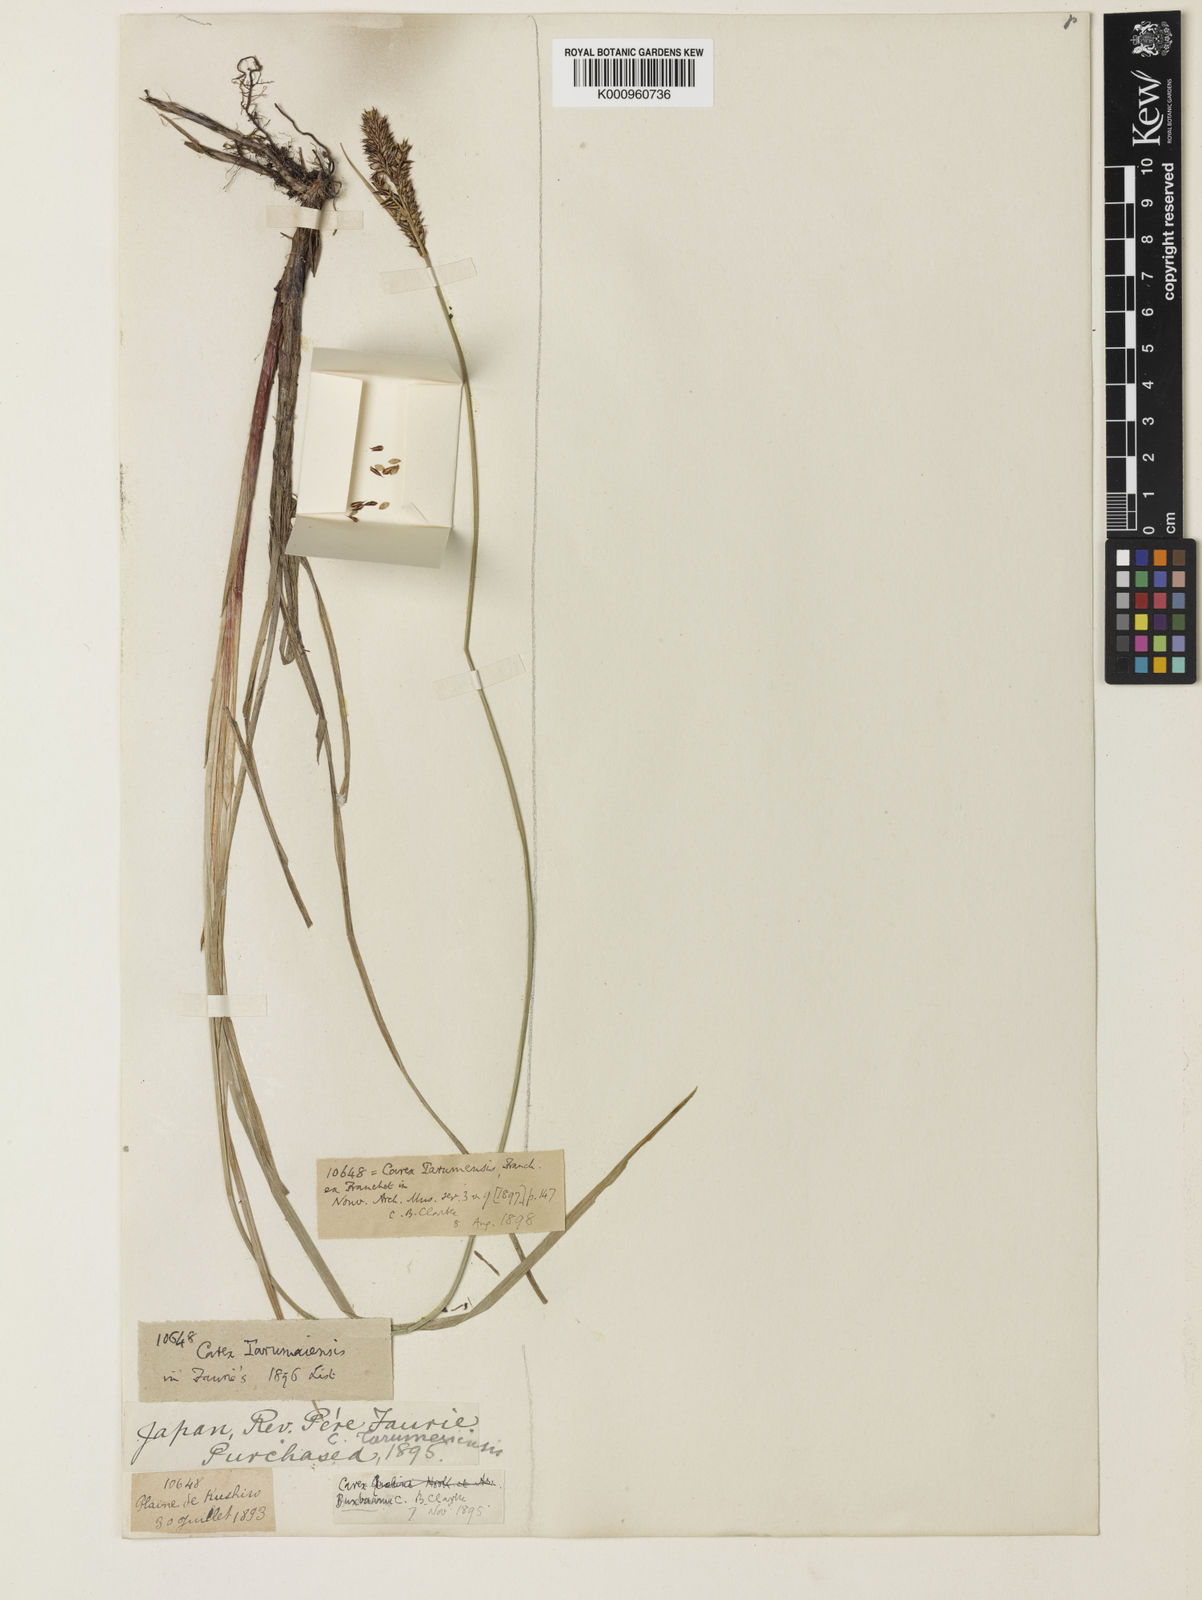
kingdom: Plantae
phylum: Tracheophyta
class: Liliopsida
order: Poales
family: Cyperaceae
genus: Carex
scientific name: Carex buxbaumii
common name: Club sedge
